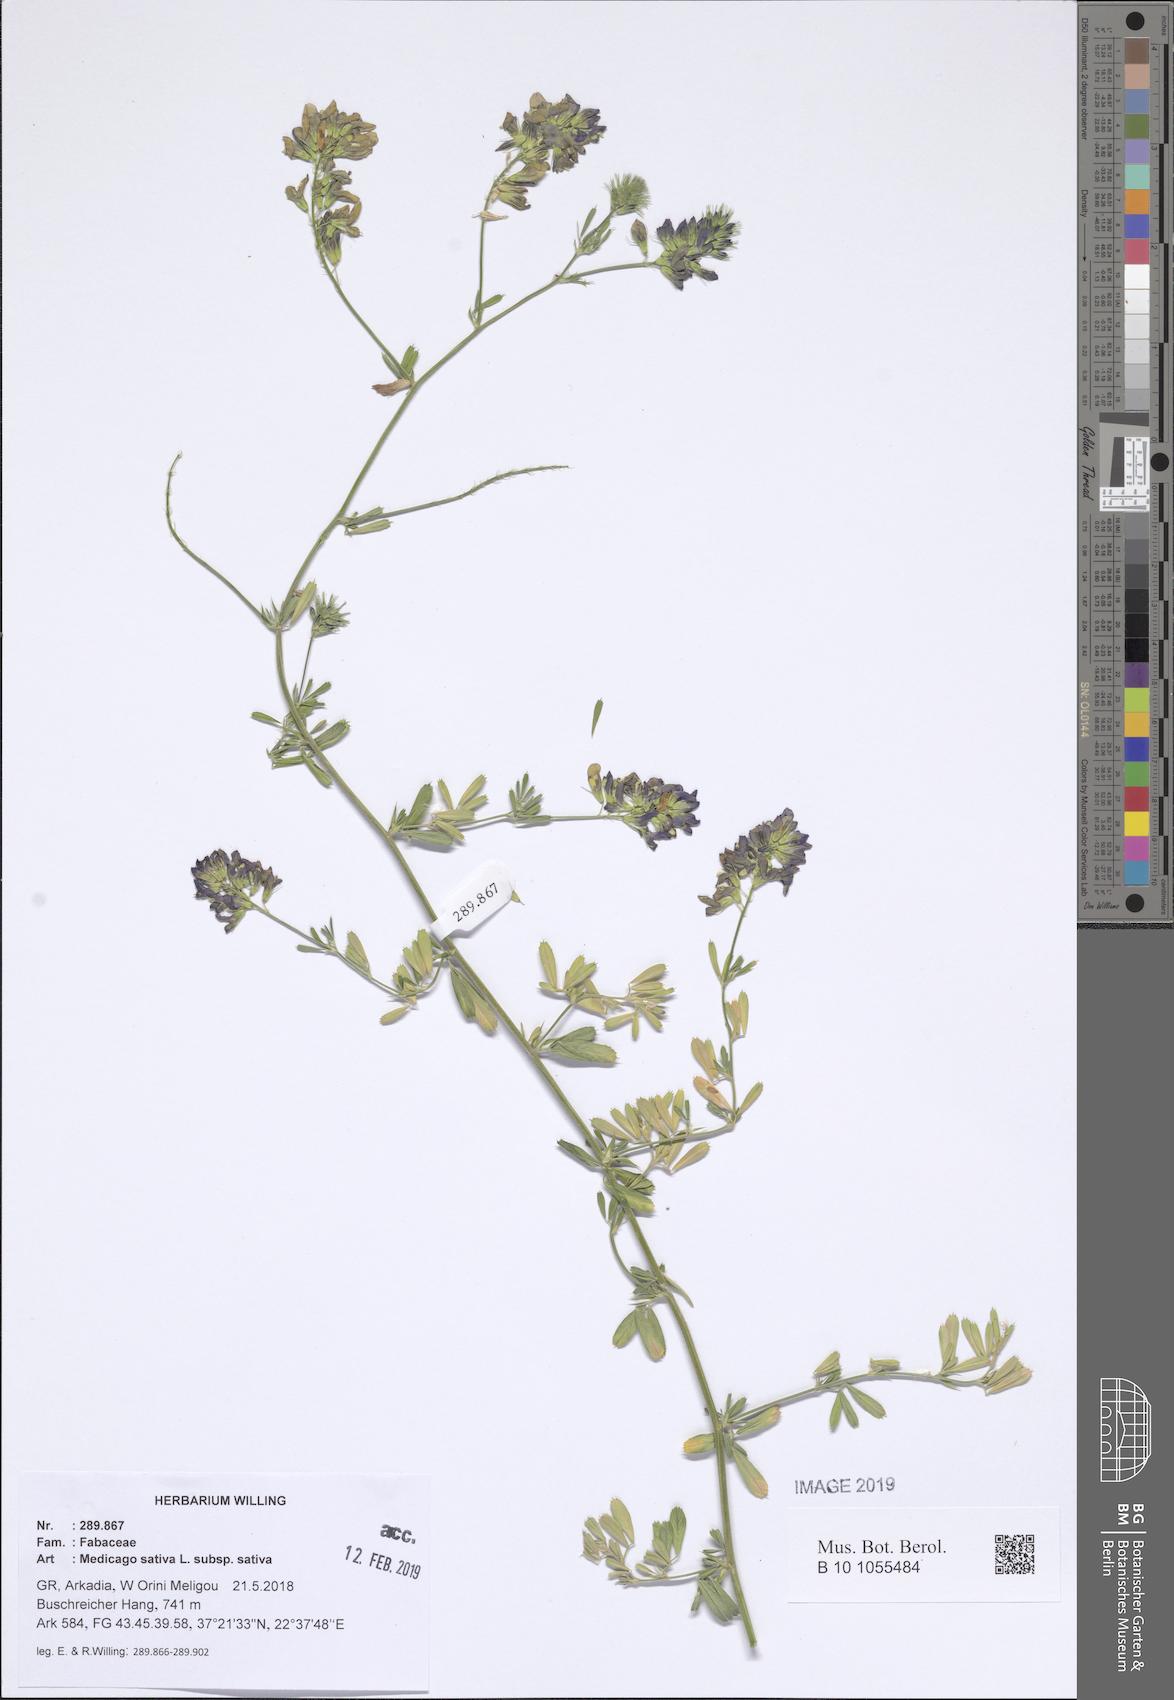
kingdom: Plantae
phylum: Tracheophyta
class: Magnoliopsida
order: Fabales
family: Fabaceae
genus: Medicago
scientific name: Medicago sativa
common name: Alfalfa
